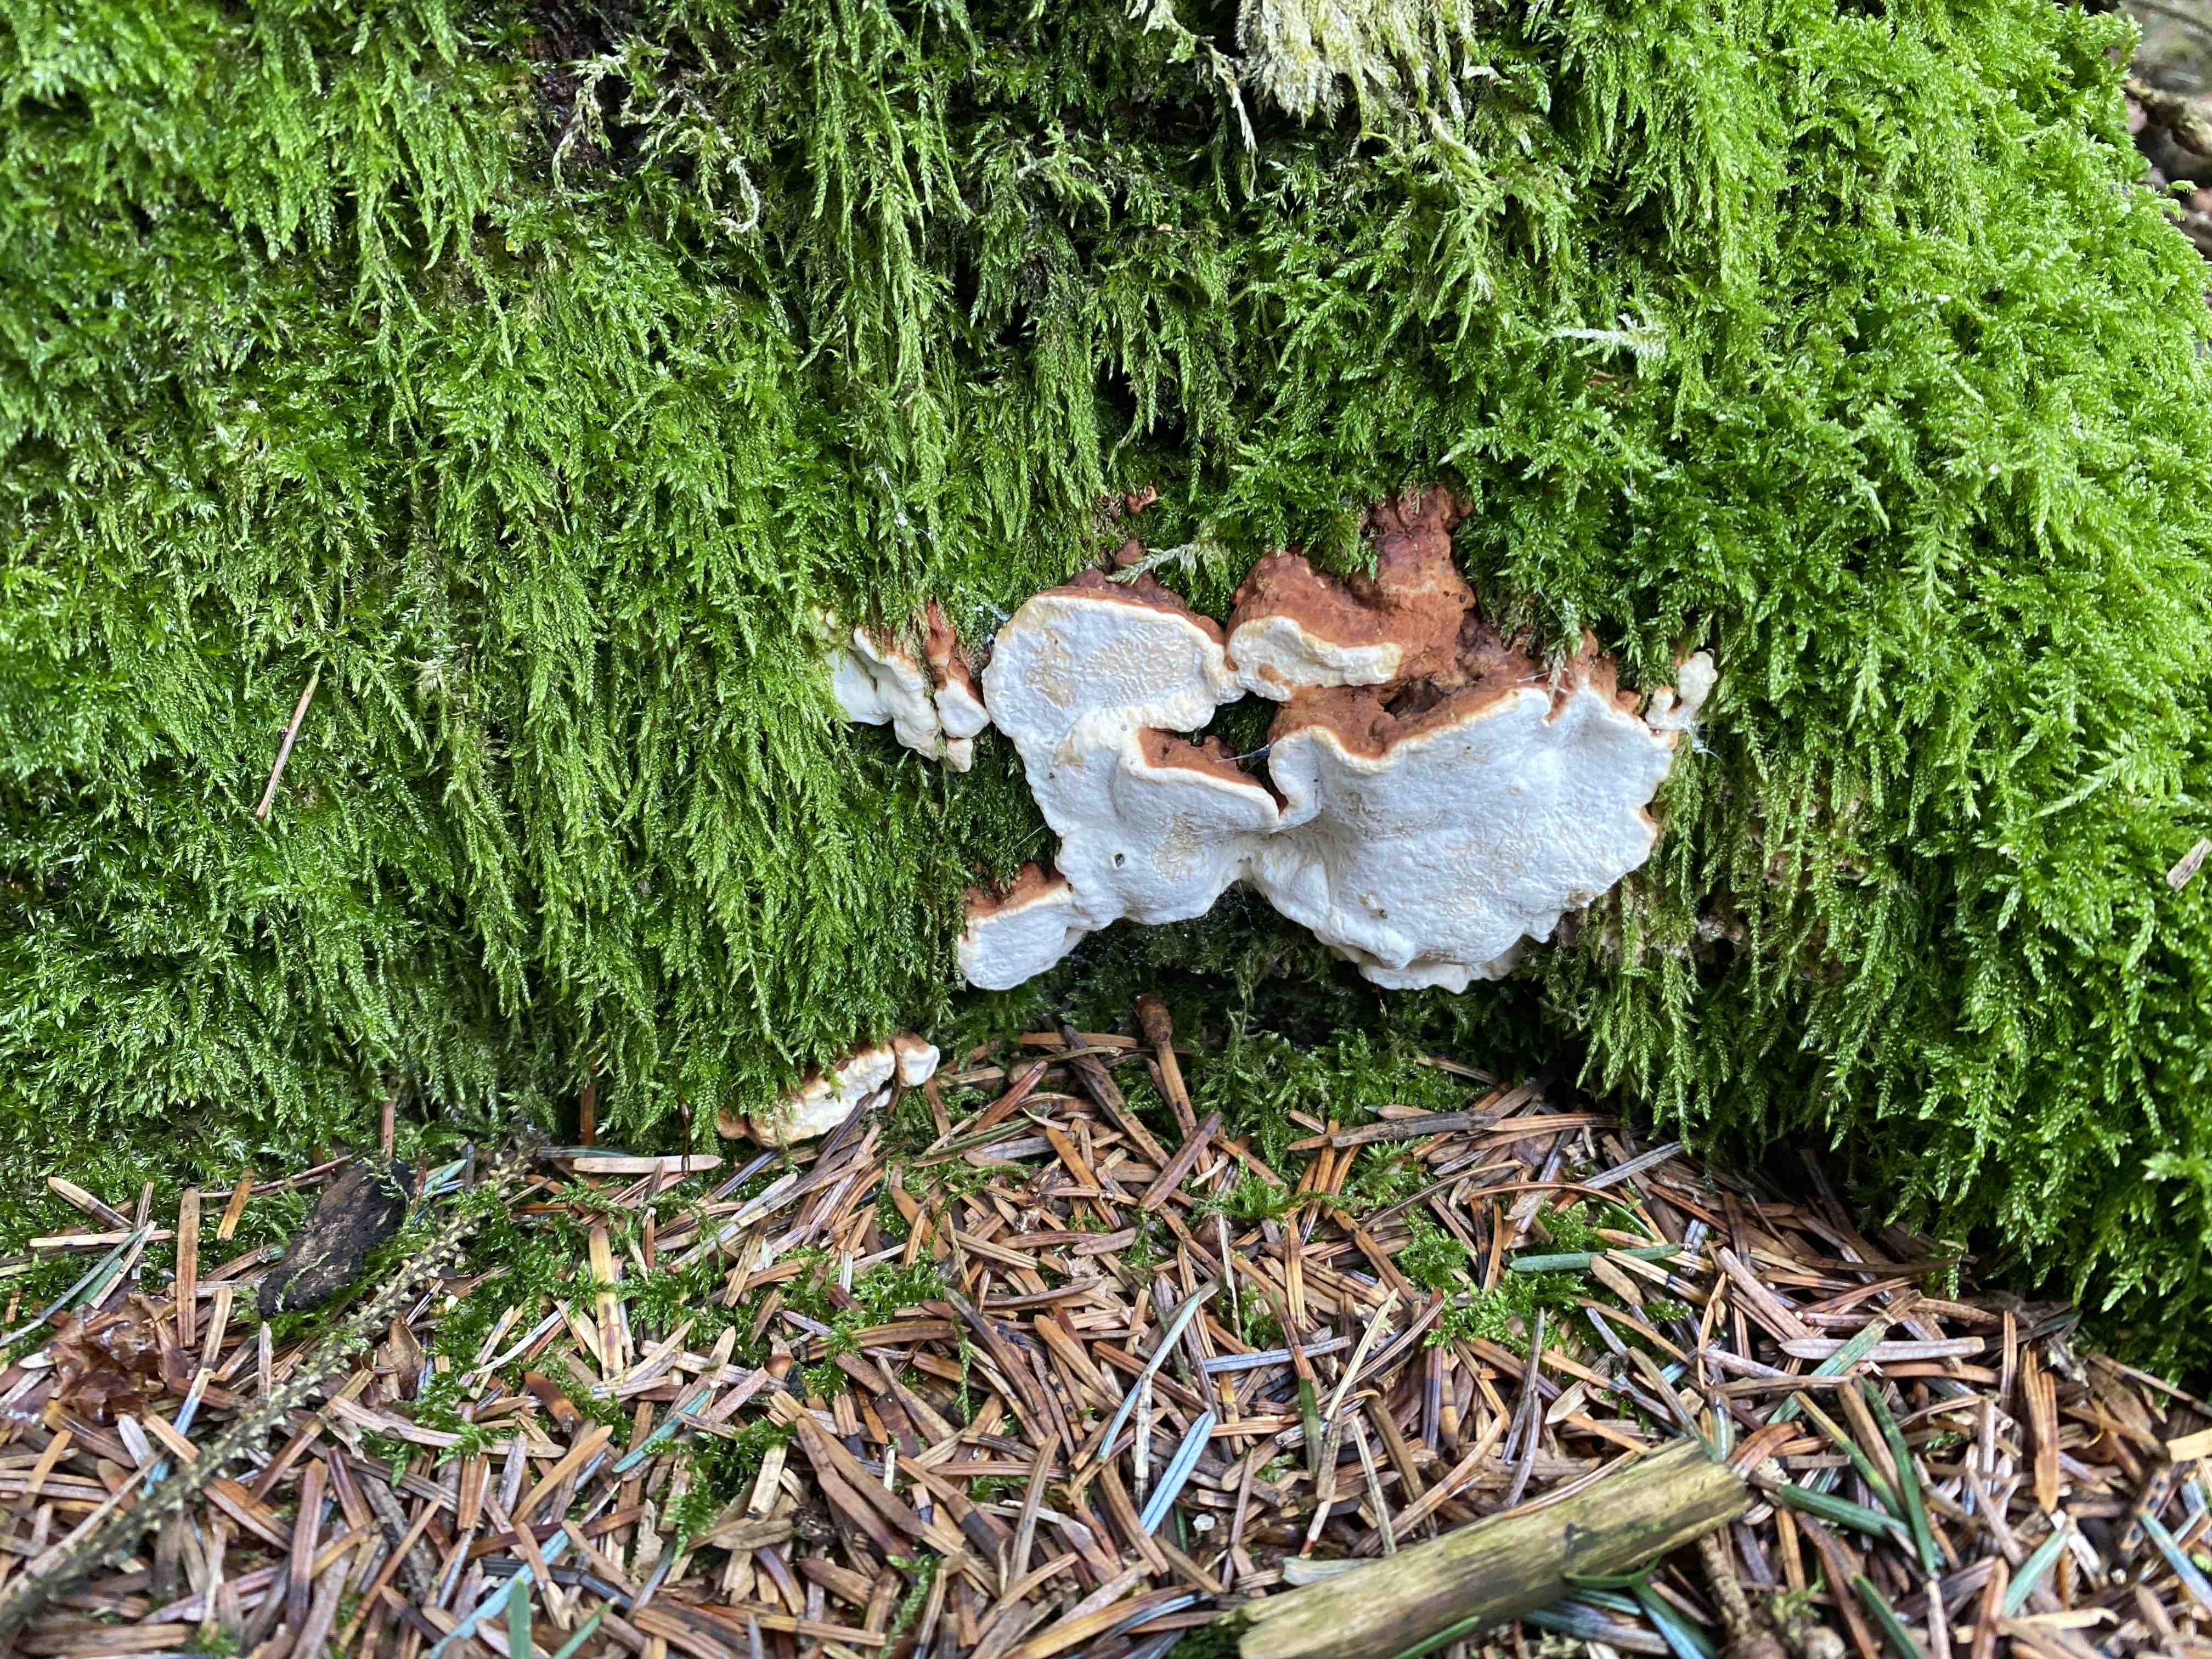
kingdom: Fungi
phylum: Basidiomycota
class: Agaricomycetes
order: Russulales
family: Bondarzewiaceae
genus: Heterobasidion
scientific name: Heterobasidion annosum
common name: almindelig rodfordærver
